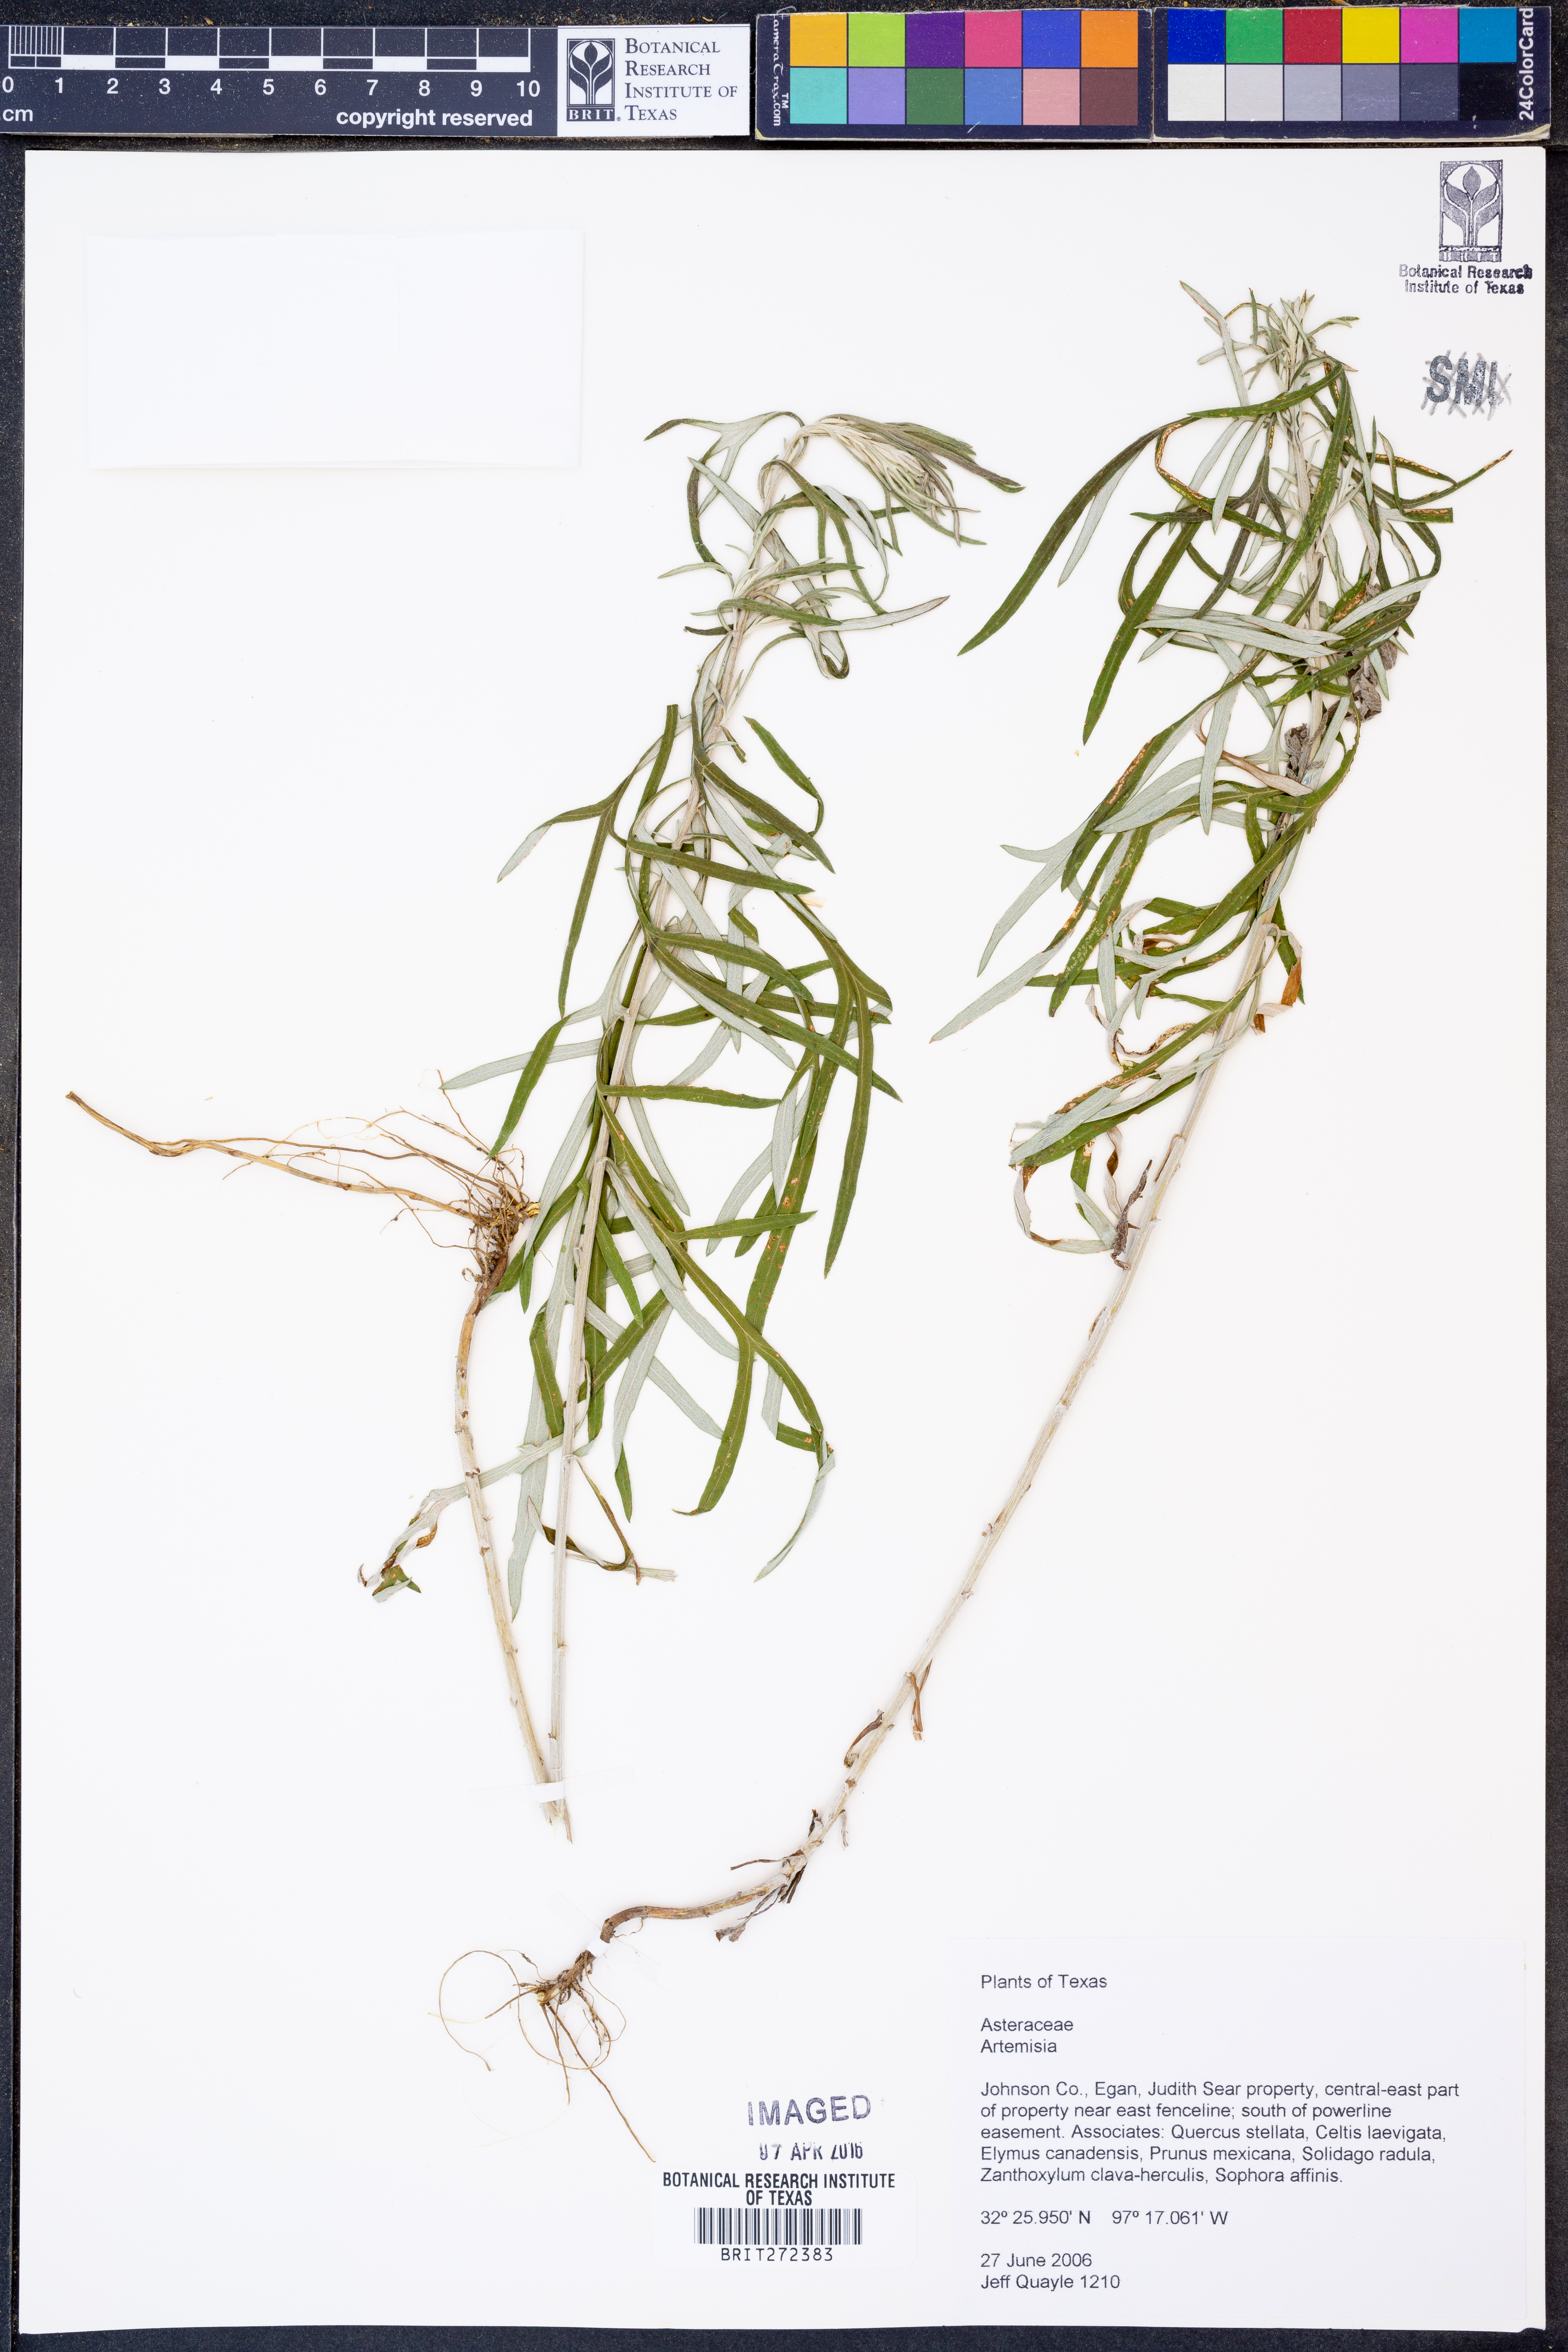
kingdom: Plantae
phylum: Tracheophyta
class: Magnoliopsida
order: Asterales
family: Asteraceae
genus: Artemisia
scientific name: Artemisia
